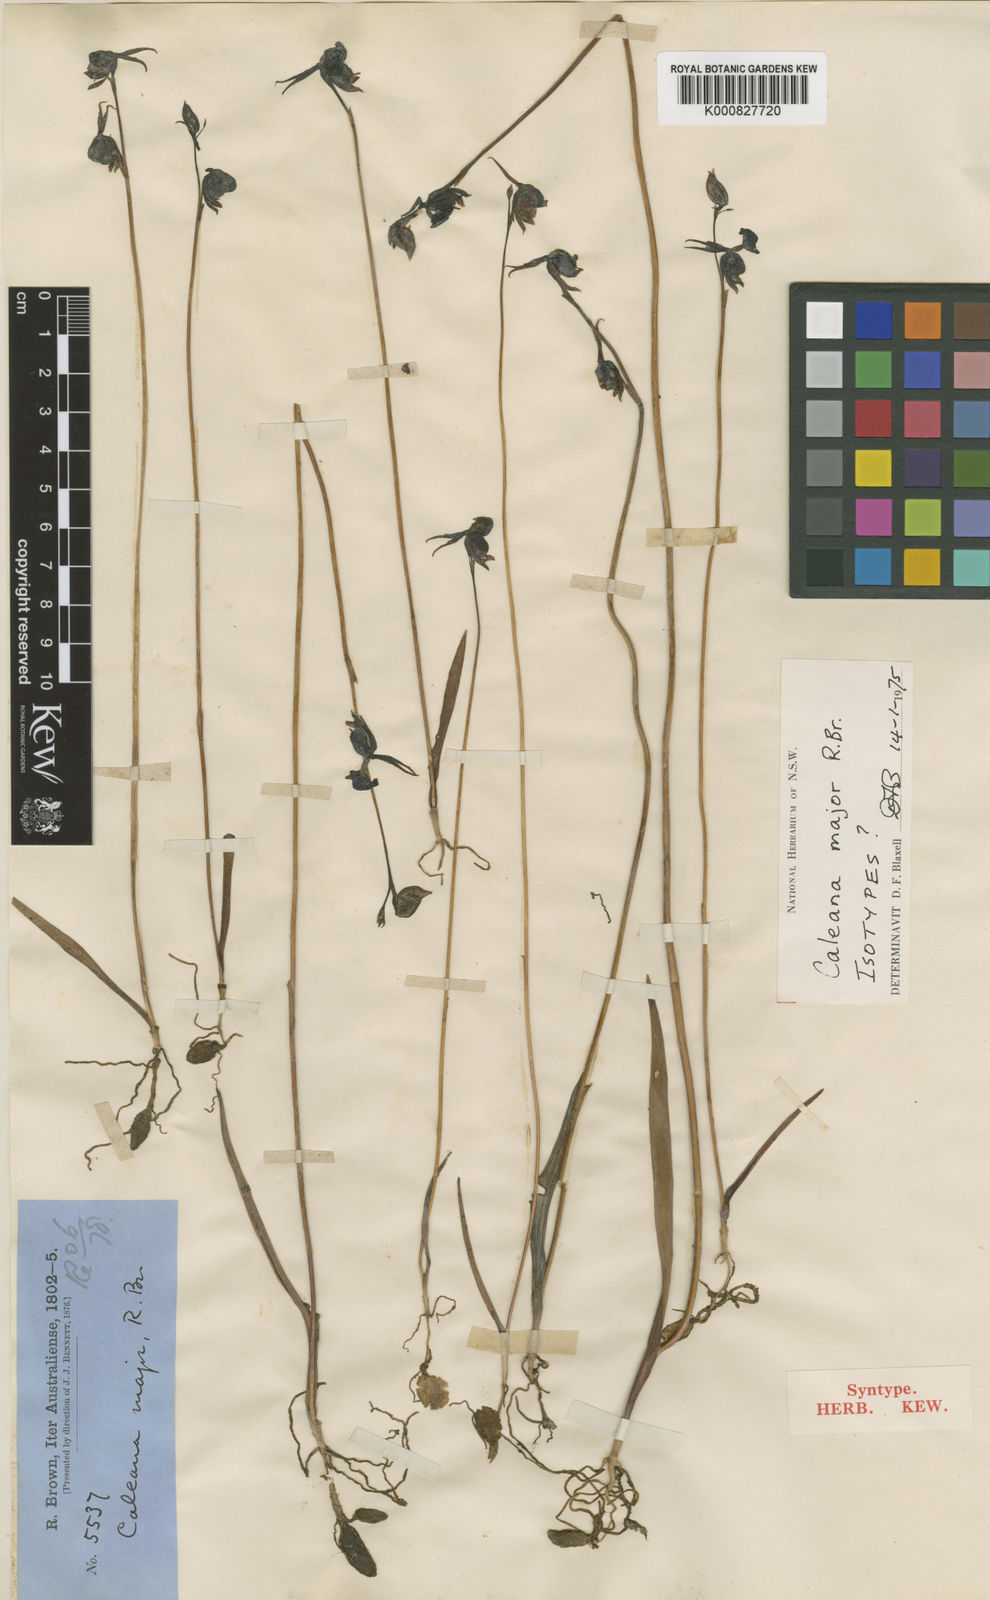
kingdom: Plantae
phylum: Tracheophyta
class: Liliopsida
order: Asparagales
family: Orchidaceae
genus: Caleana
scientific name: Caleana major
